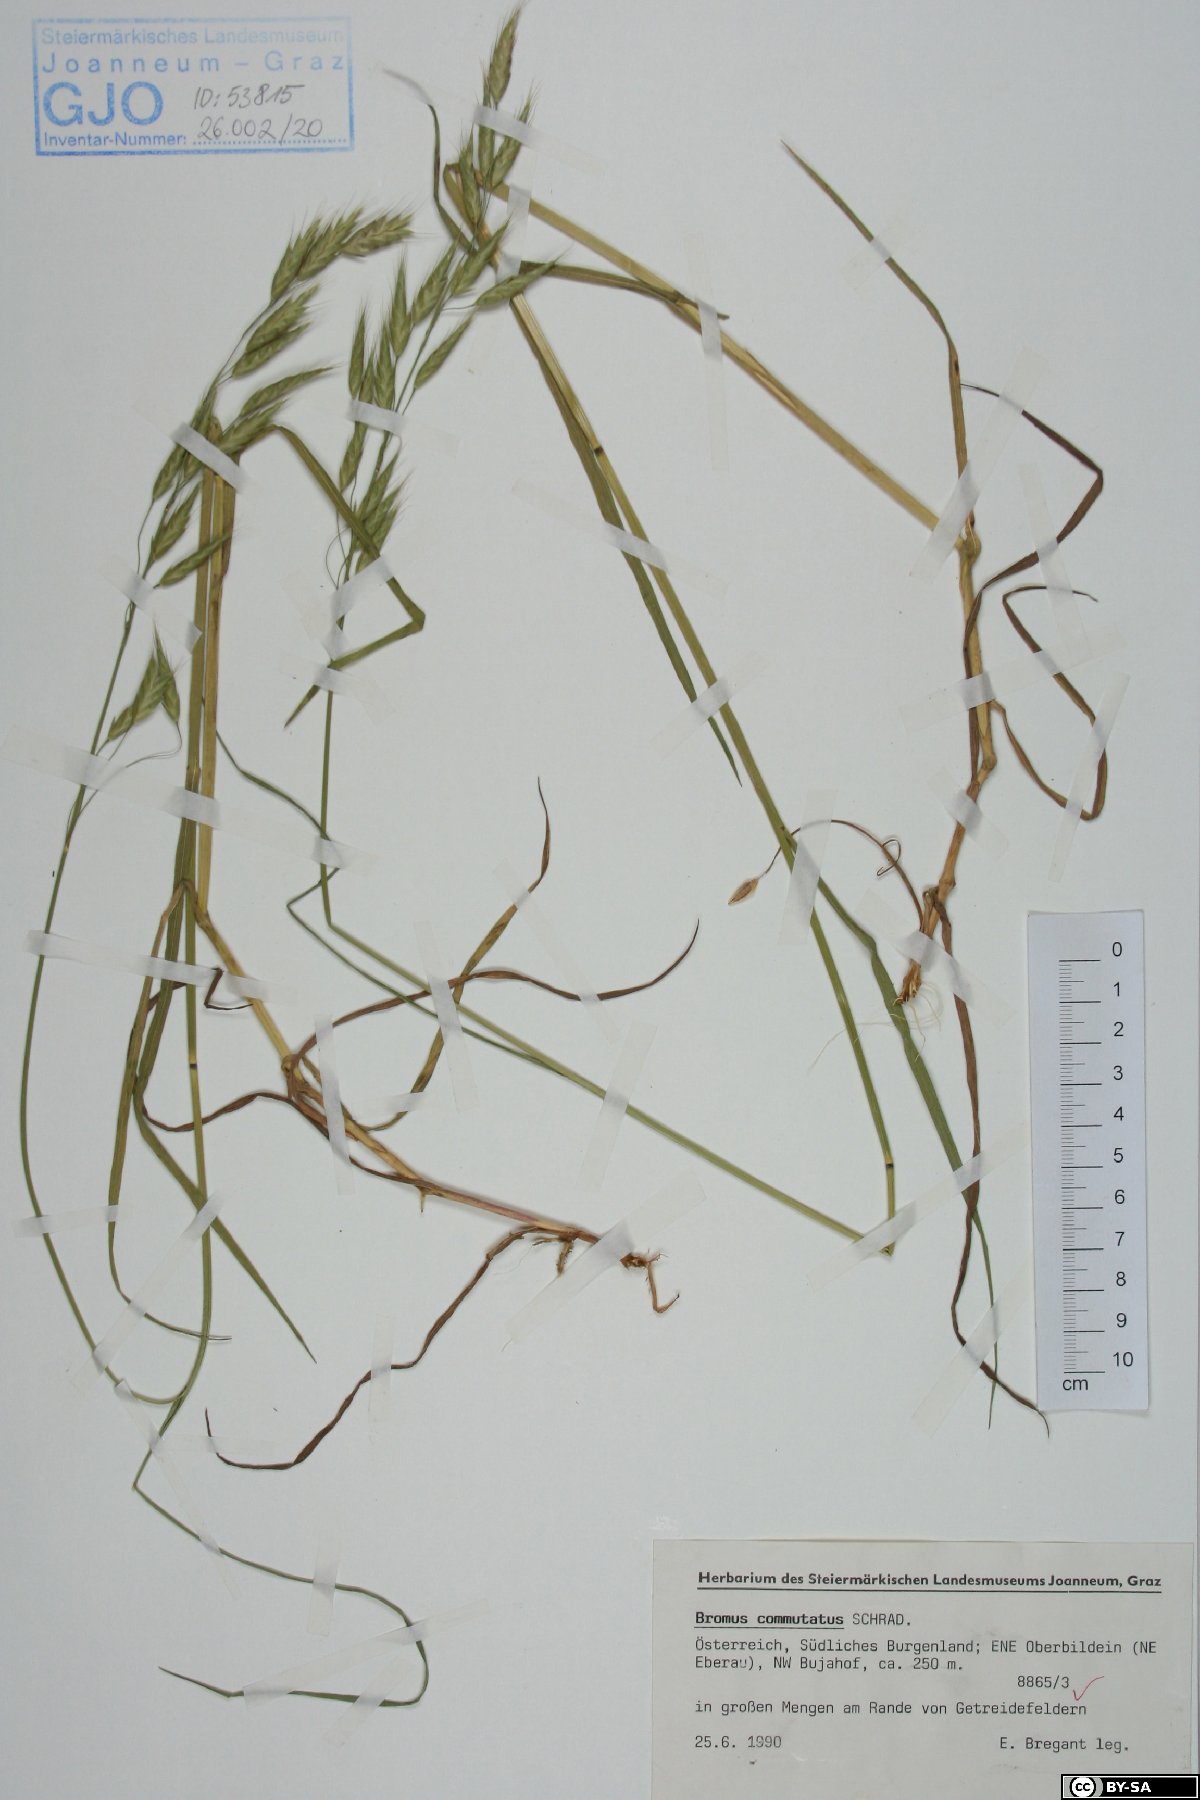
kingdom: Plantae
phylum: Tracheophyta
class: Liliopsida
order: Poales
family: Poaceae
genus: Bromus
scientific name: Bromus commutatus
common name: Meadow brome
